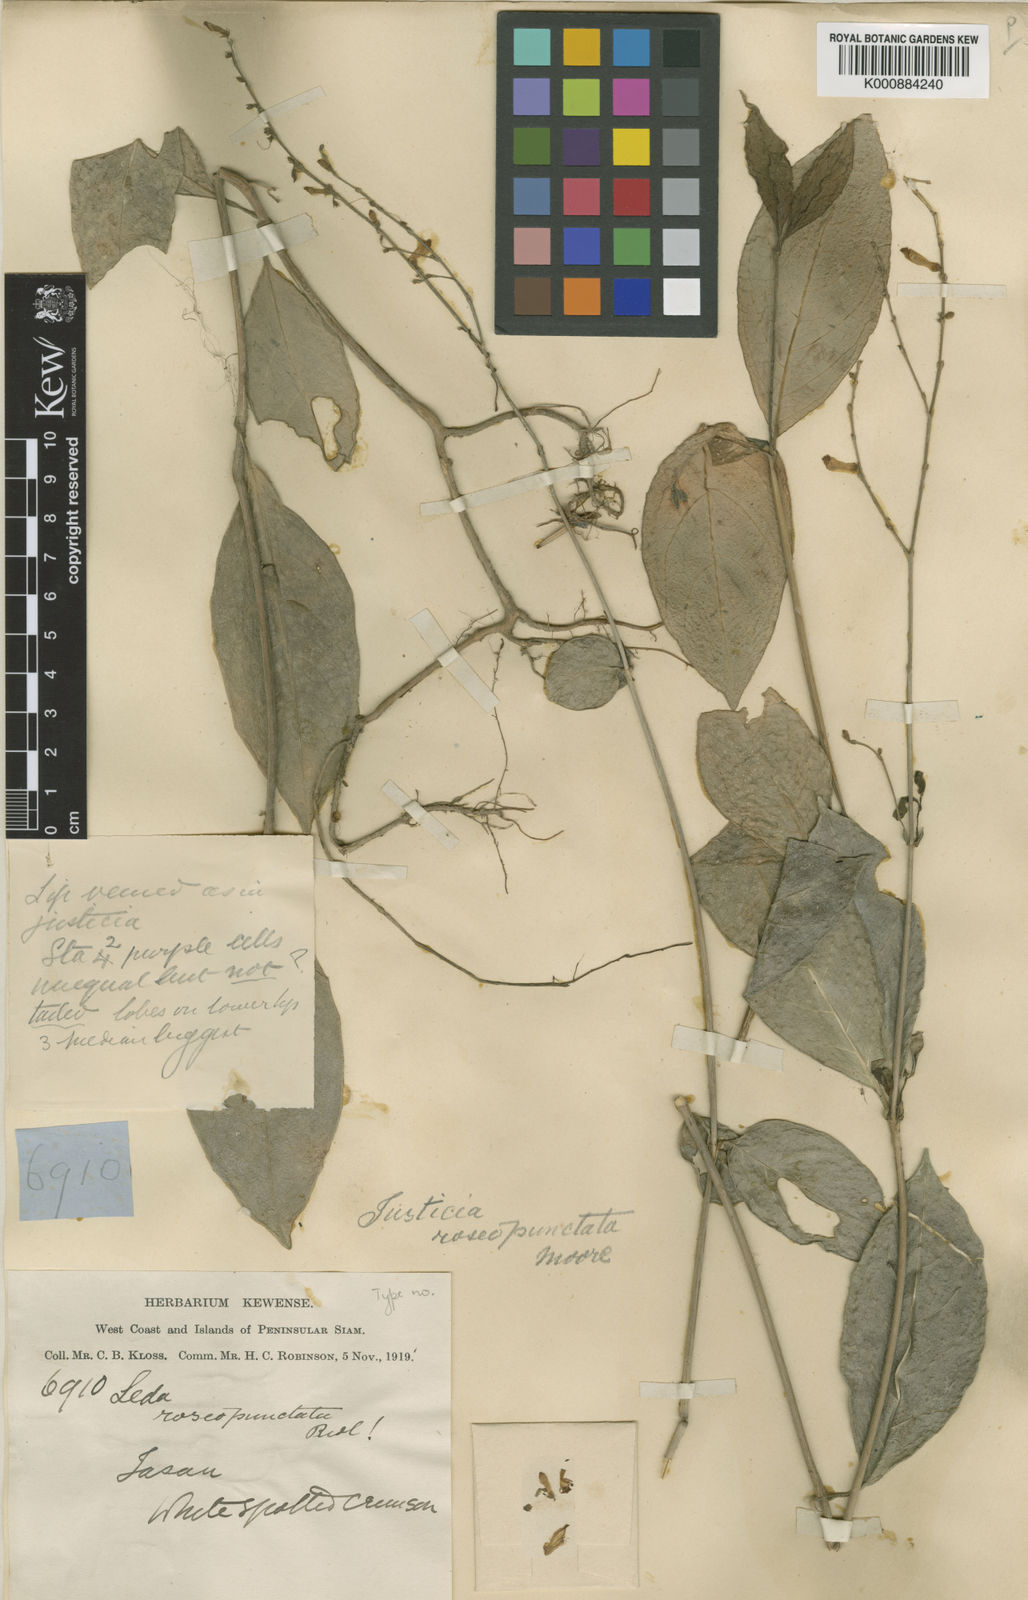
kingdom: Plantae
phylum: Tracheophyta
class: Magnoliopsida
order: Lamiales
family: Acanthaceae
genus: Justicia
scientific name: Justicia roseopunctata
